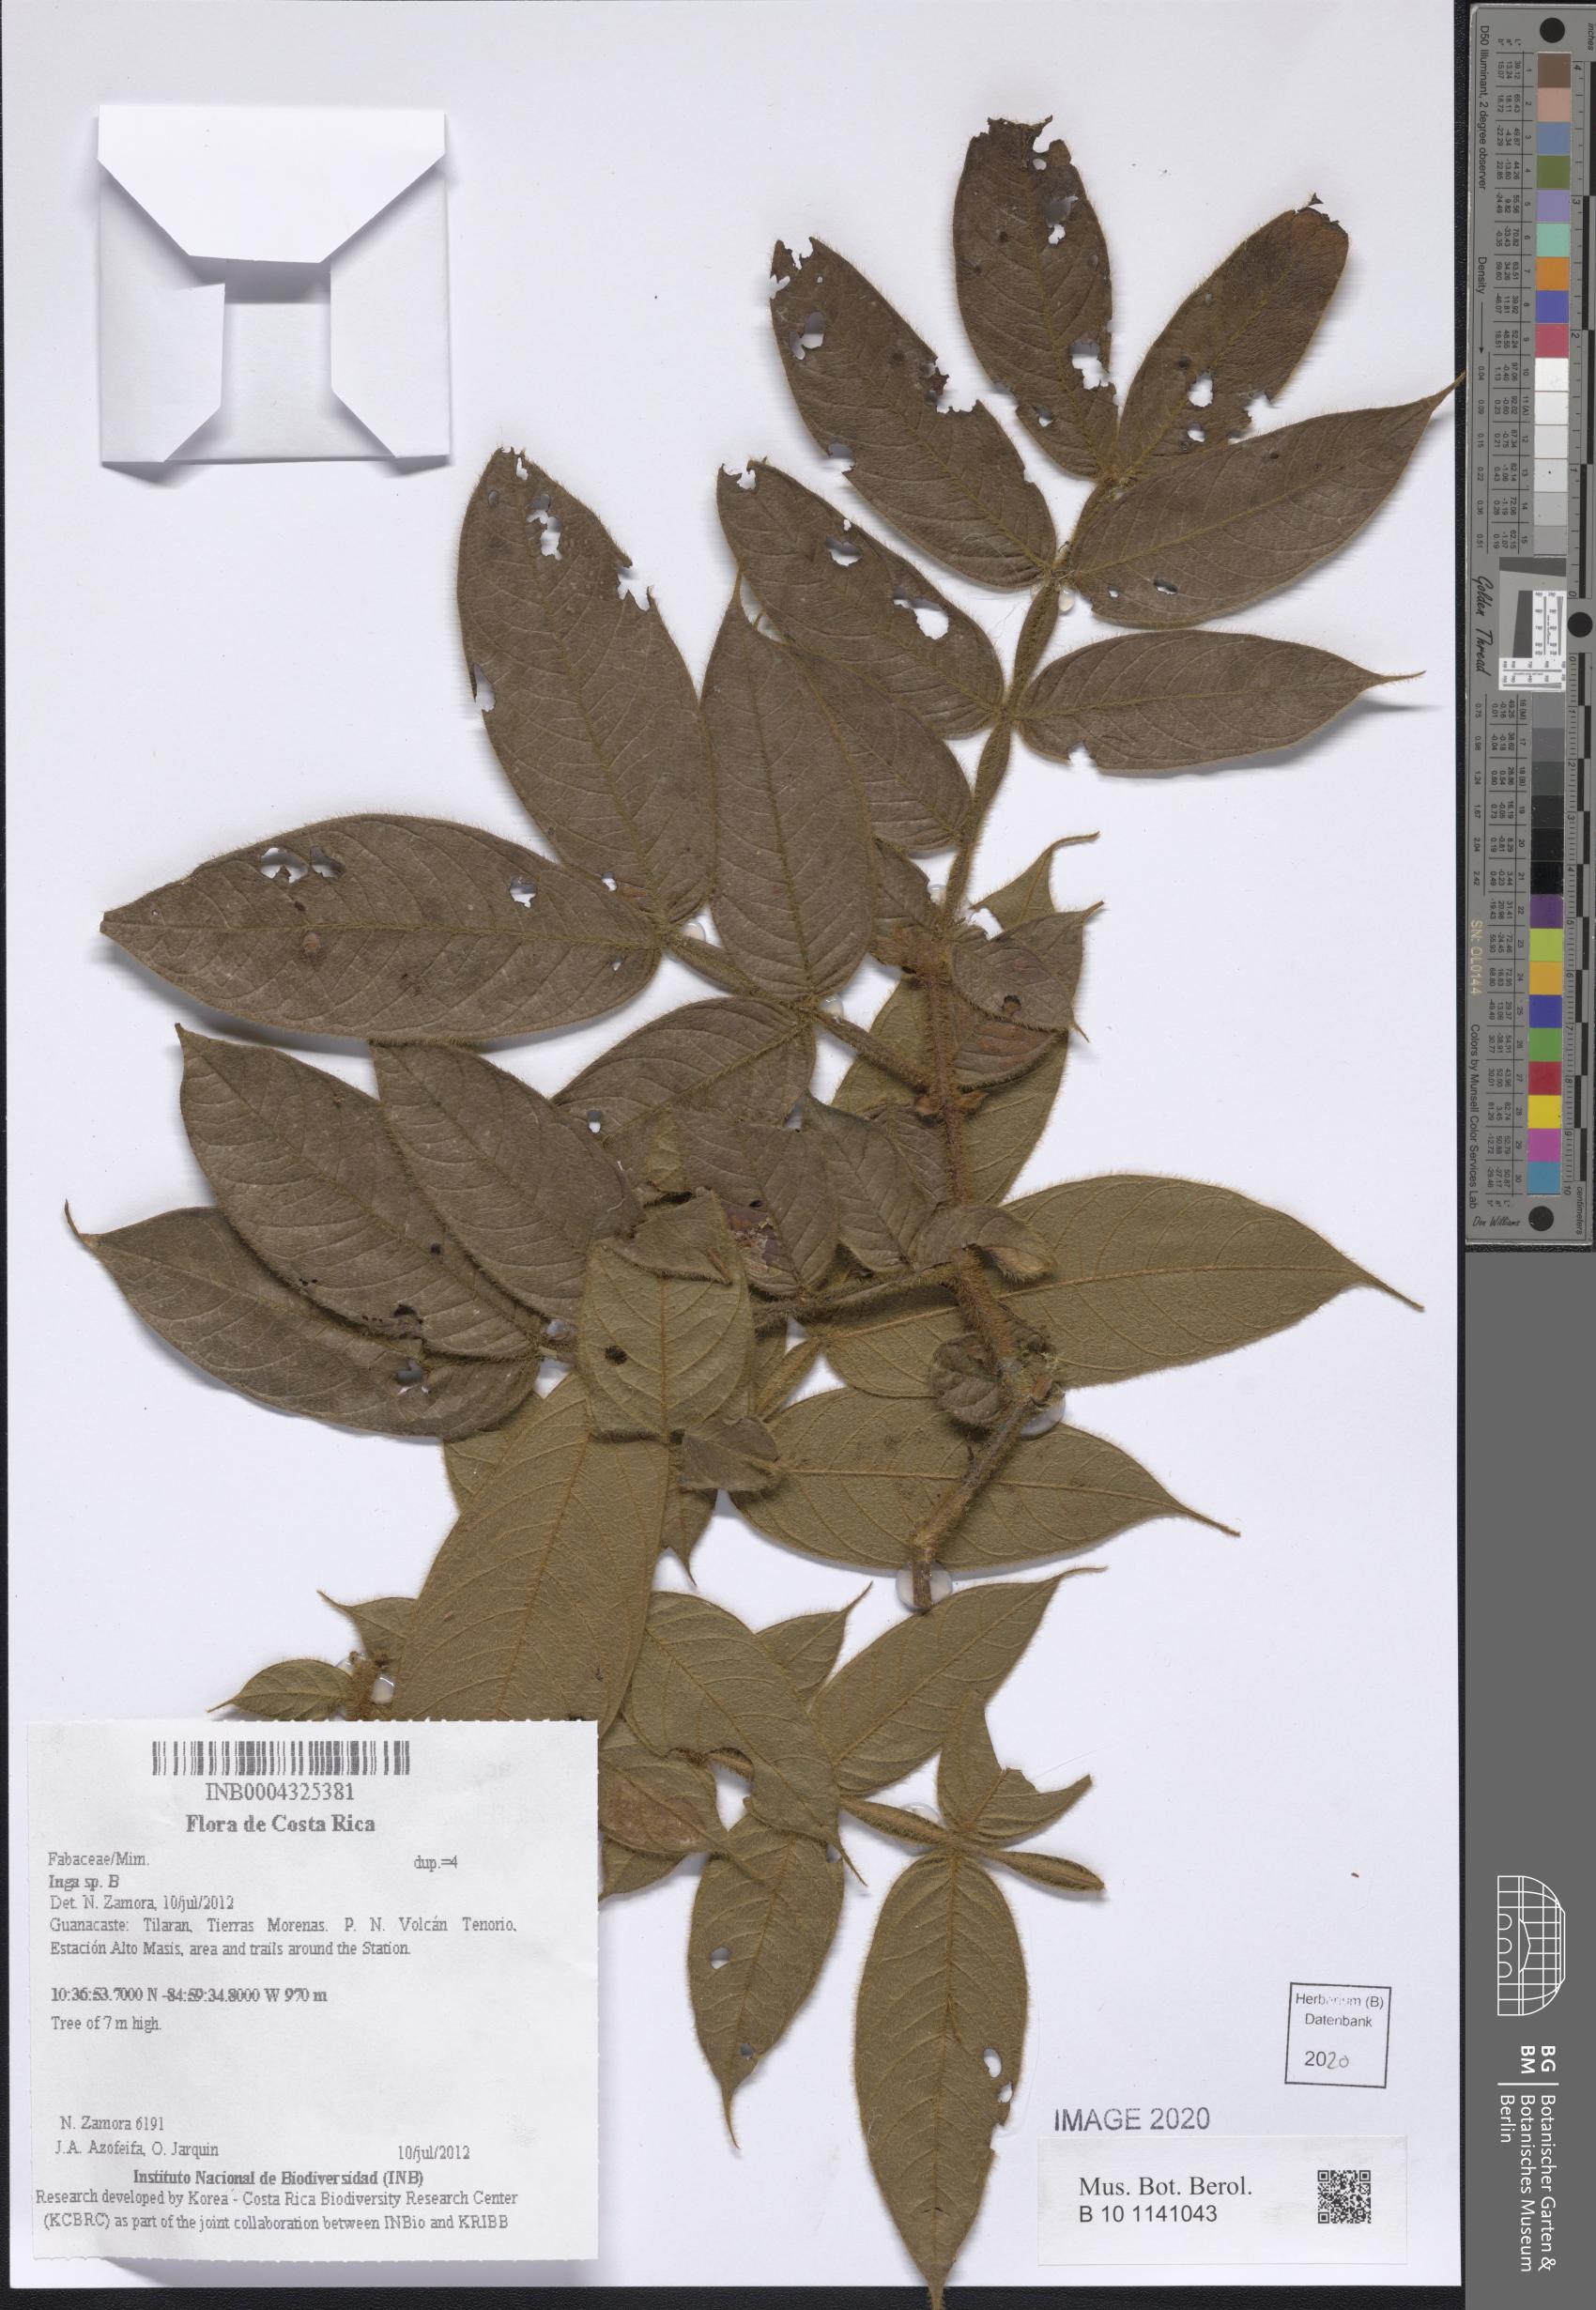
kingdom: Plantae
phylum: Tracheophyta
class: Magnoliopsida
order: Fabales
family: Fabaceae
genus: Inga
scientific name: Inga
